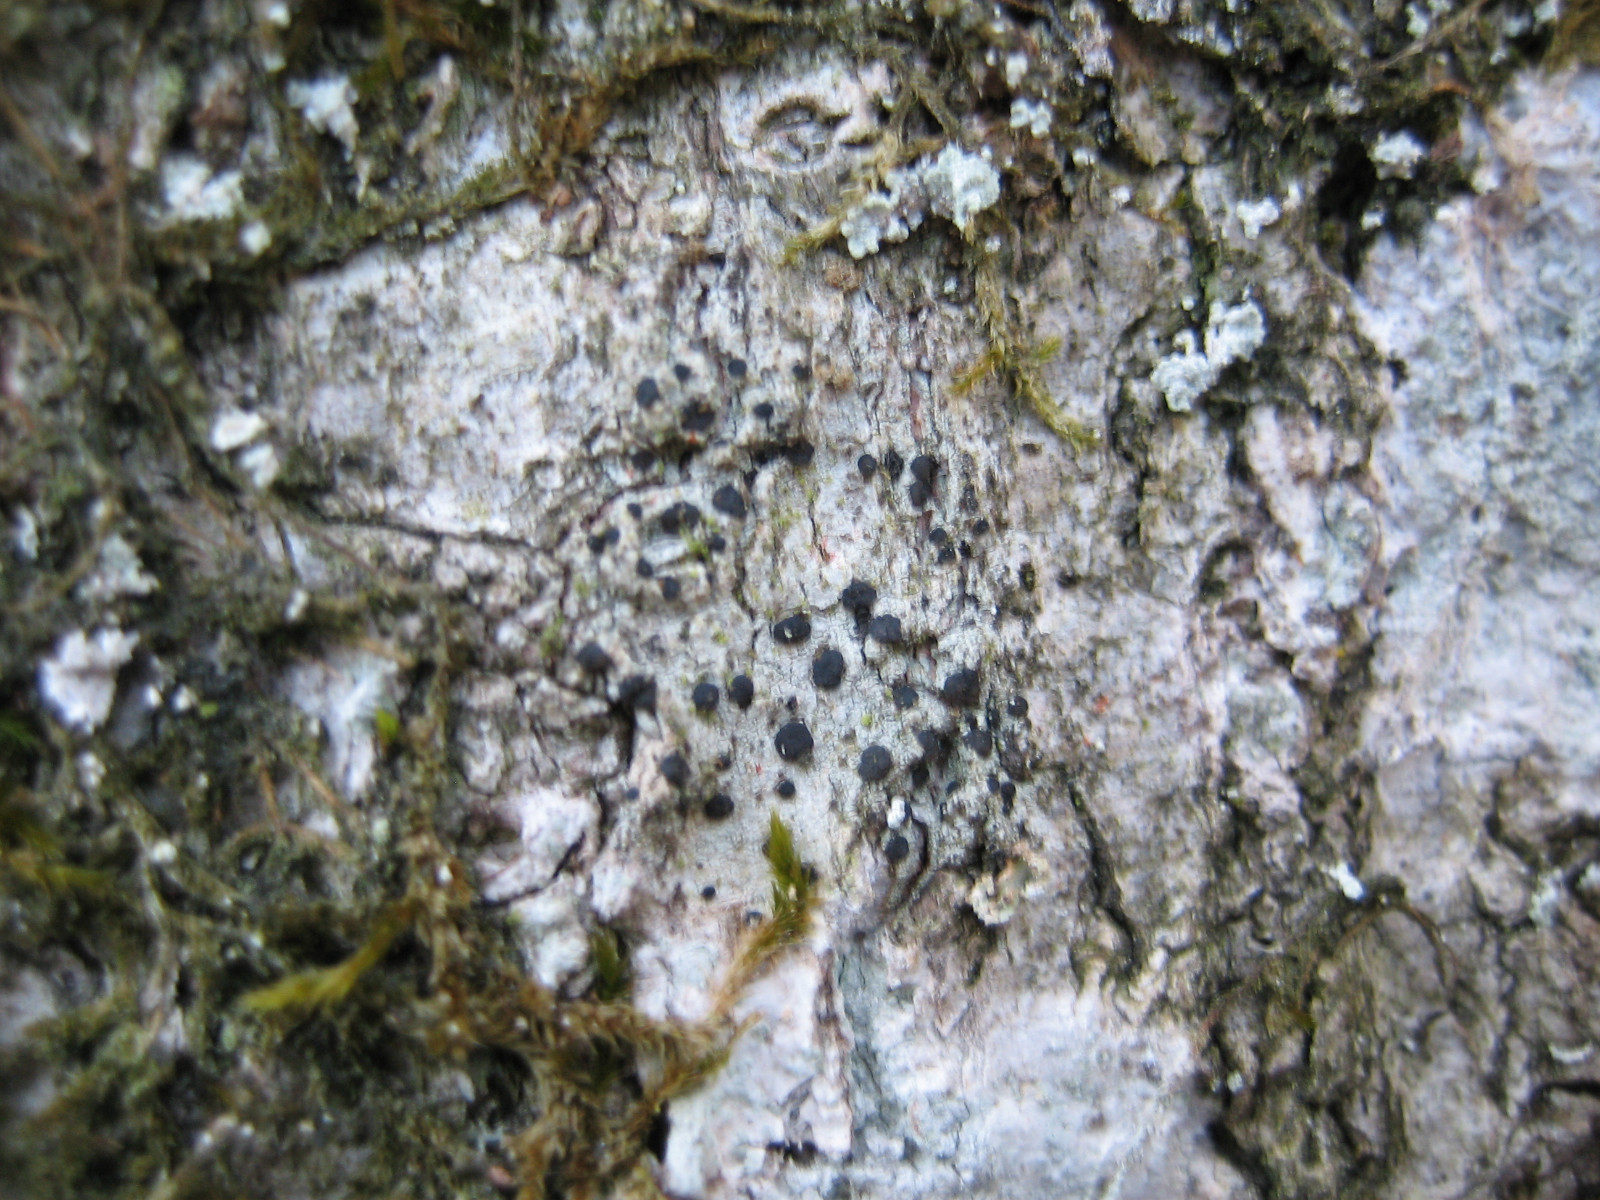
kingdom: Fungi
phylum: Ascomycota
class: Lecanoromycetes
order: Lecanorales
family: Lecanoraceae
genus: Lecidella
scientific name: Lecidella elaeochroma
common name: grågrøn skivelav
